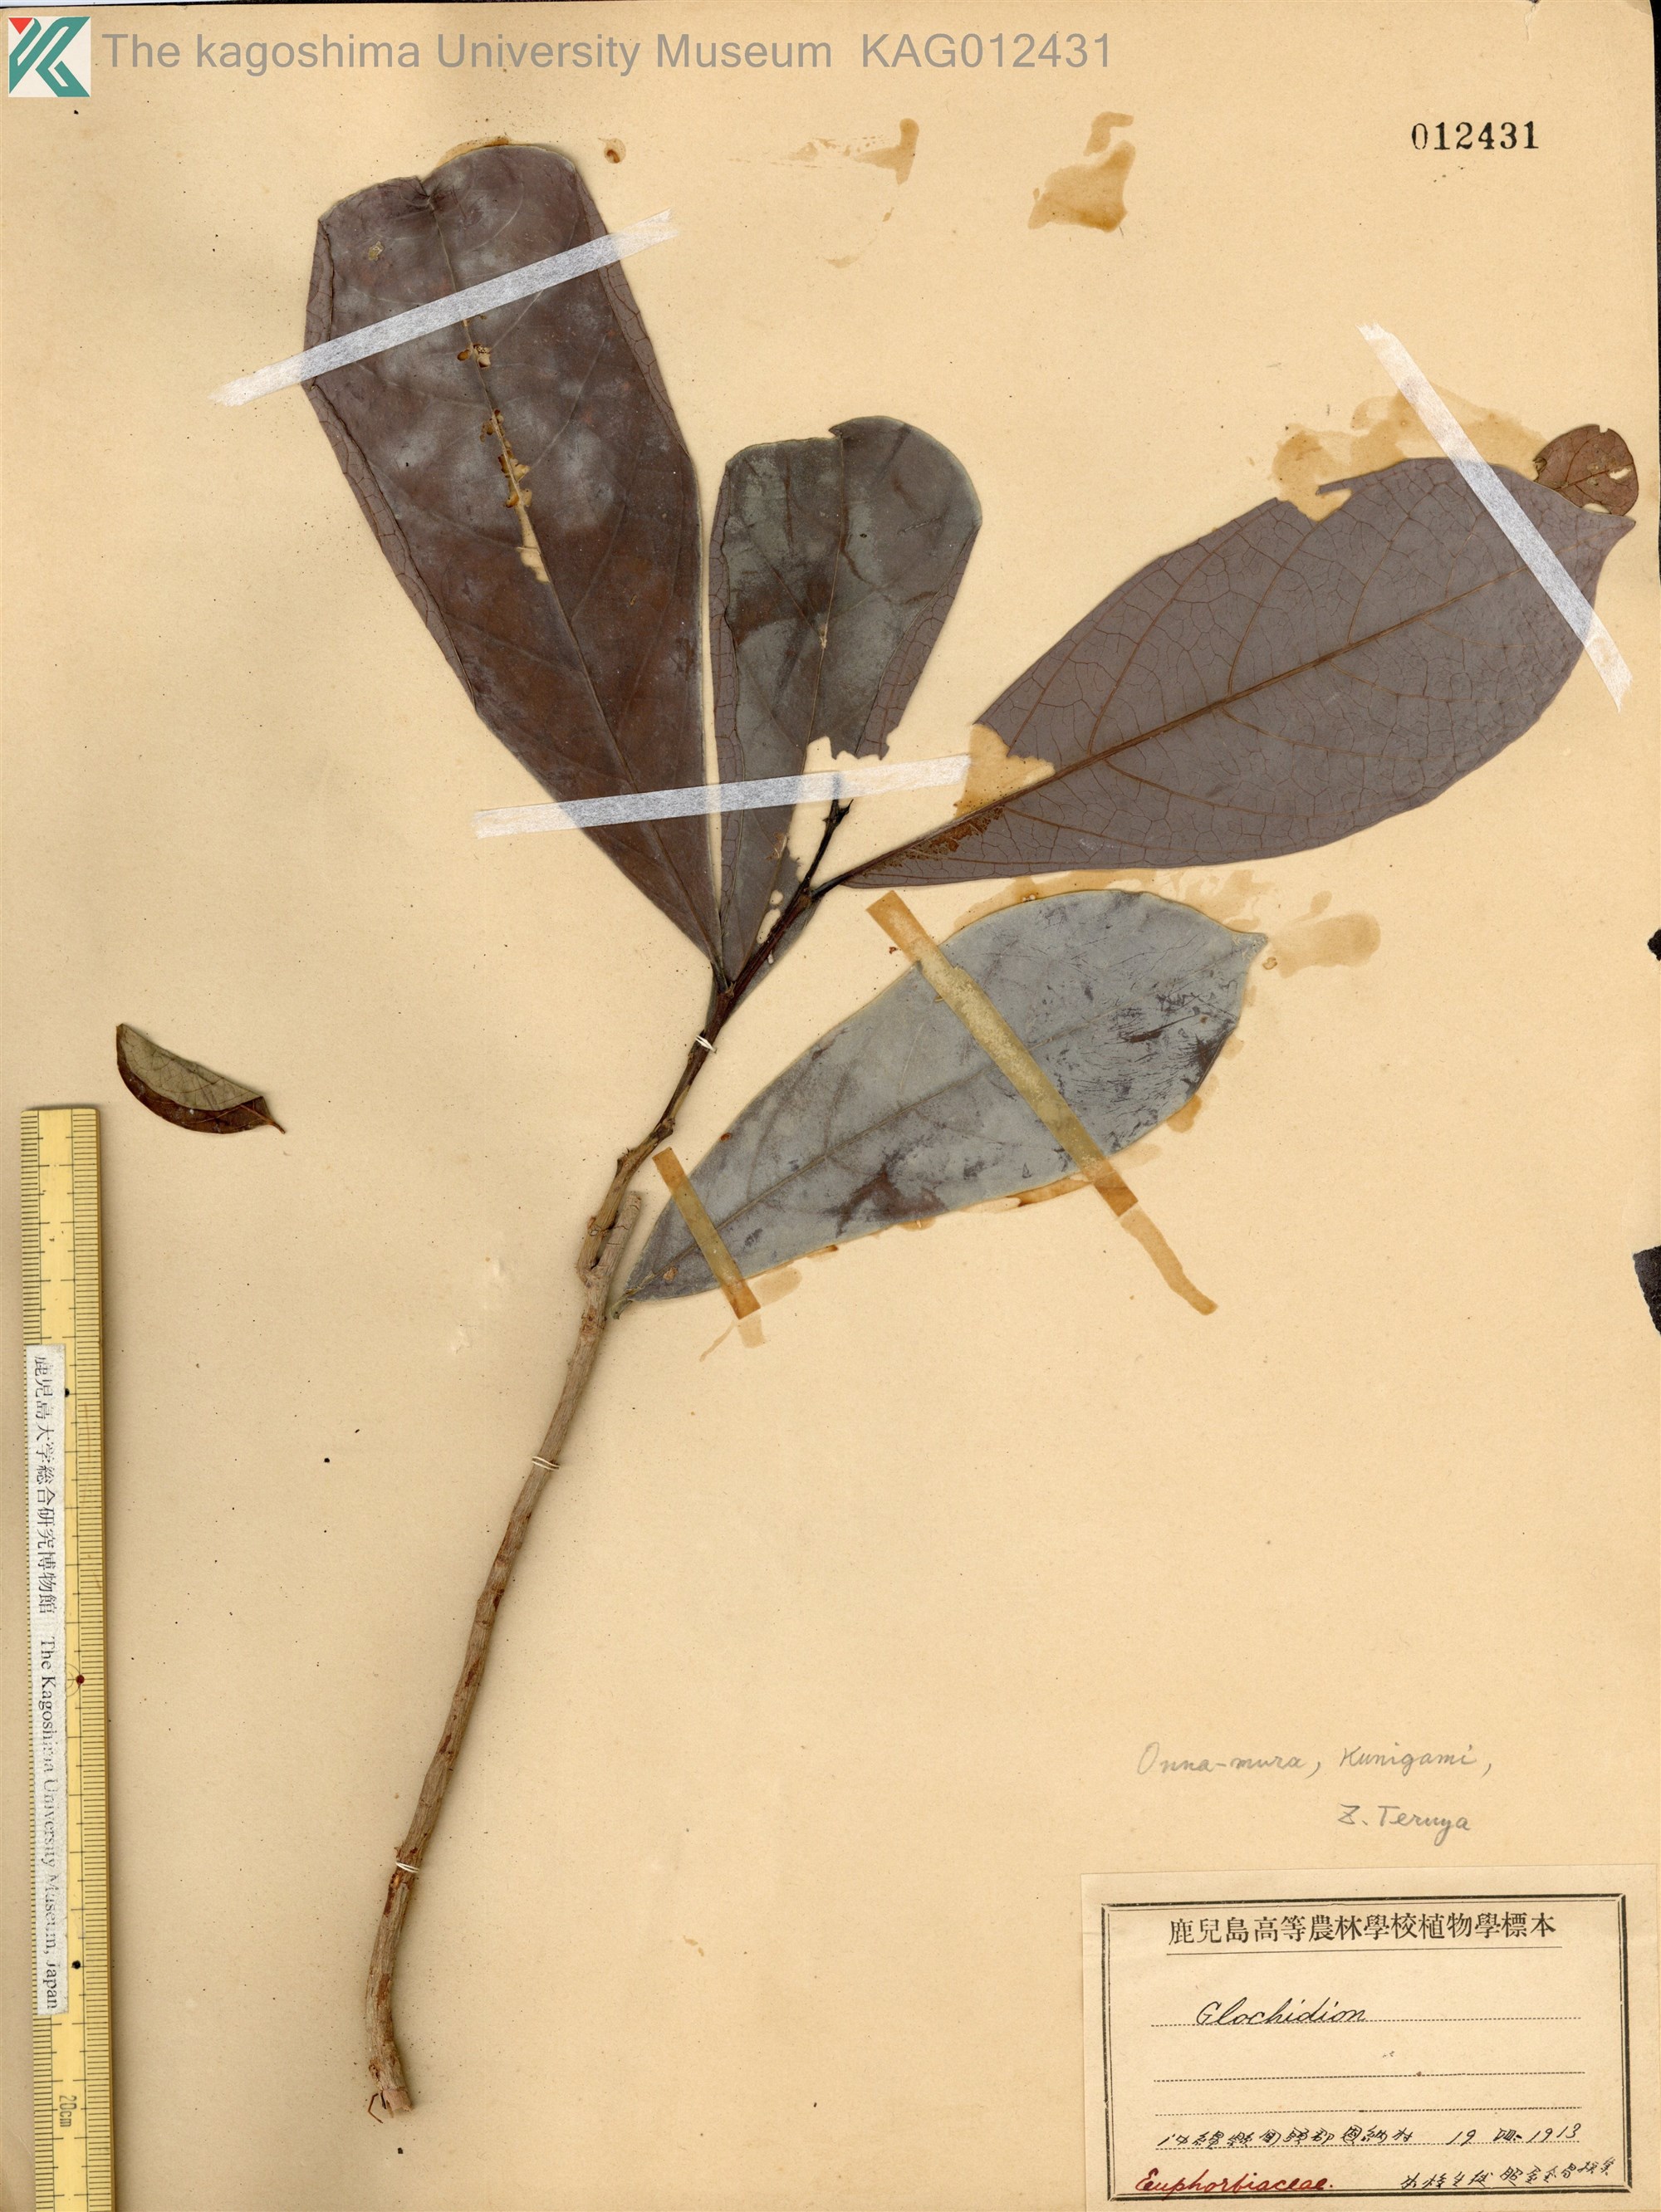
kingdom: Plantae
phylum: Tracheophyta
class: Magnoliopsida
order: Malpighiales
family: Phyllanthaceae
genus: Glochidion
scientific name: Glochidion triandrum
